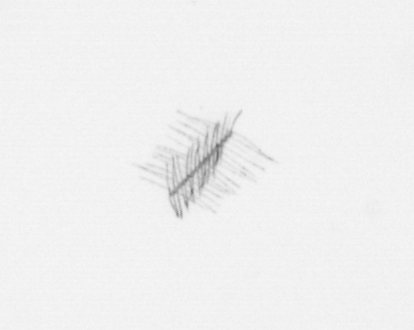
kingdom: Chromista
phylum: Ochrophyta
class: Bacillariophyceae
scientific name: Bacillariophyceae
